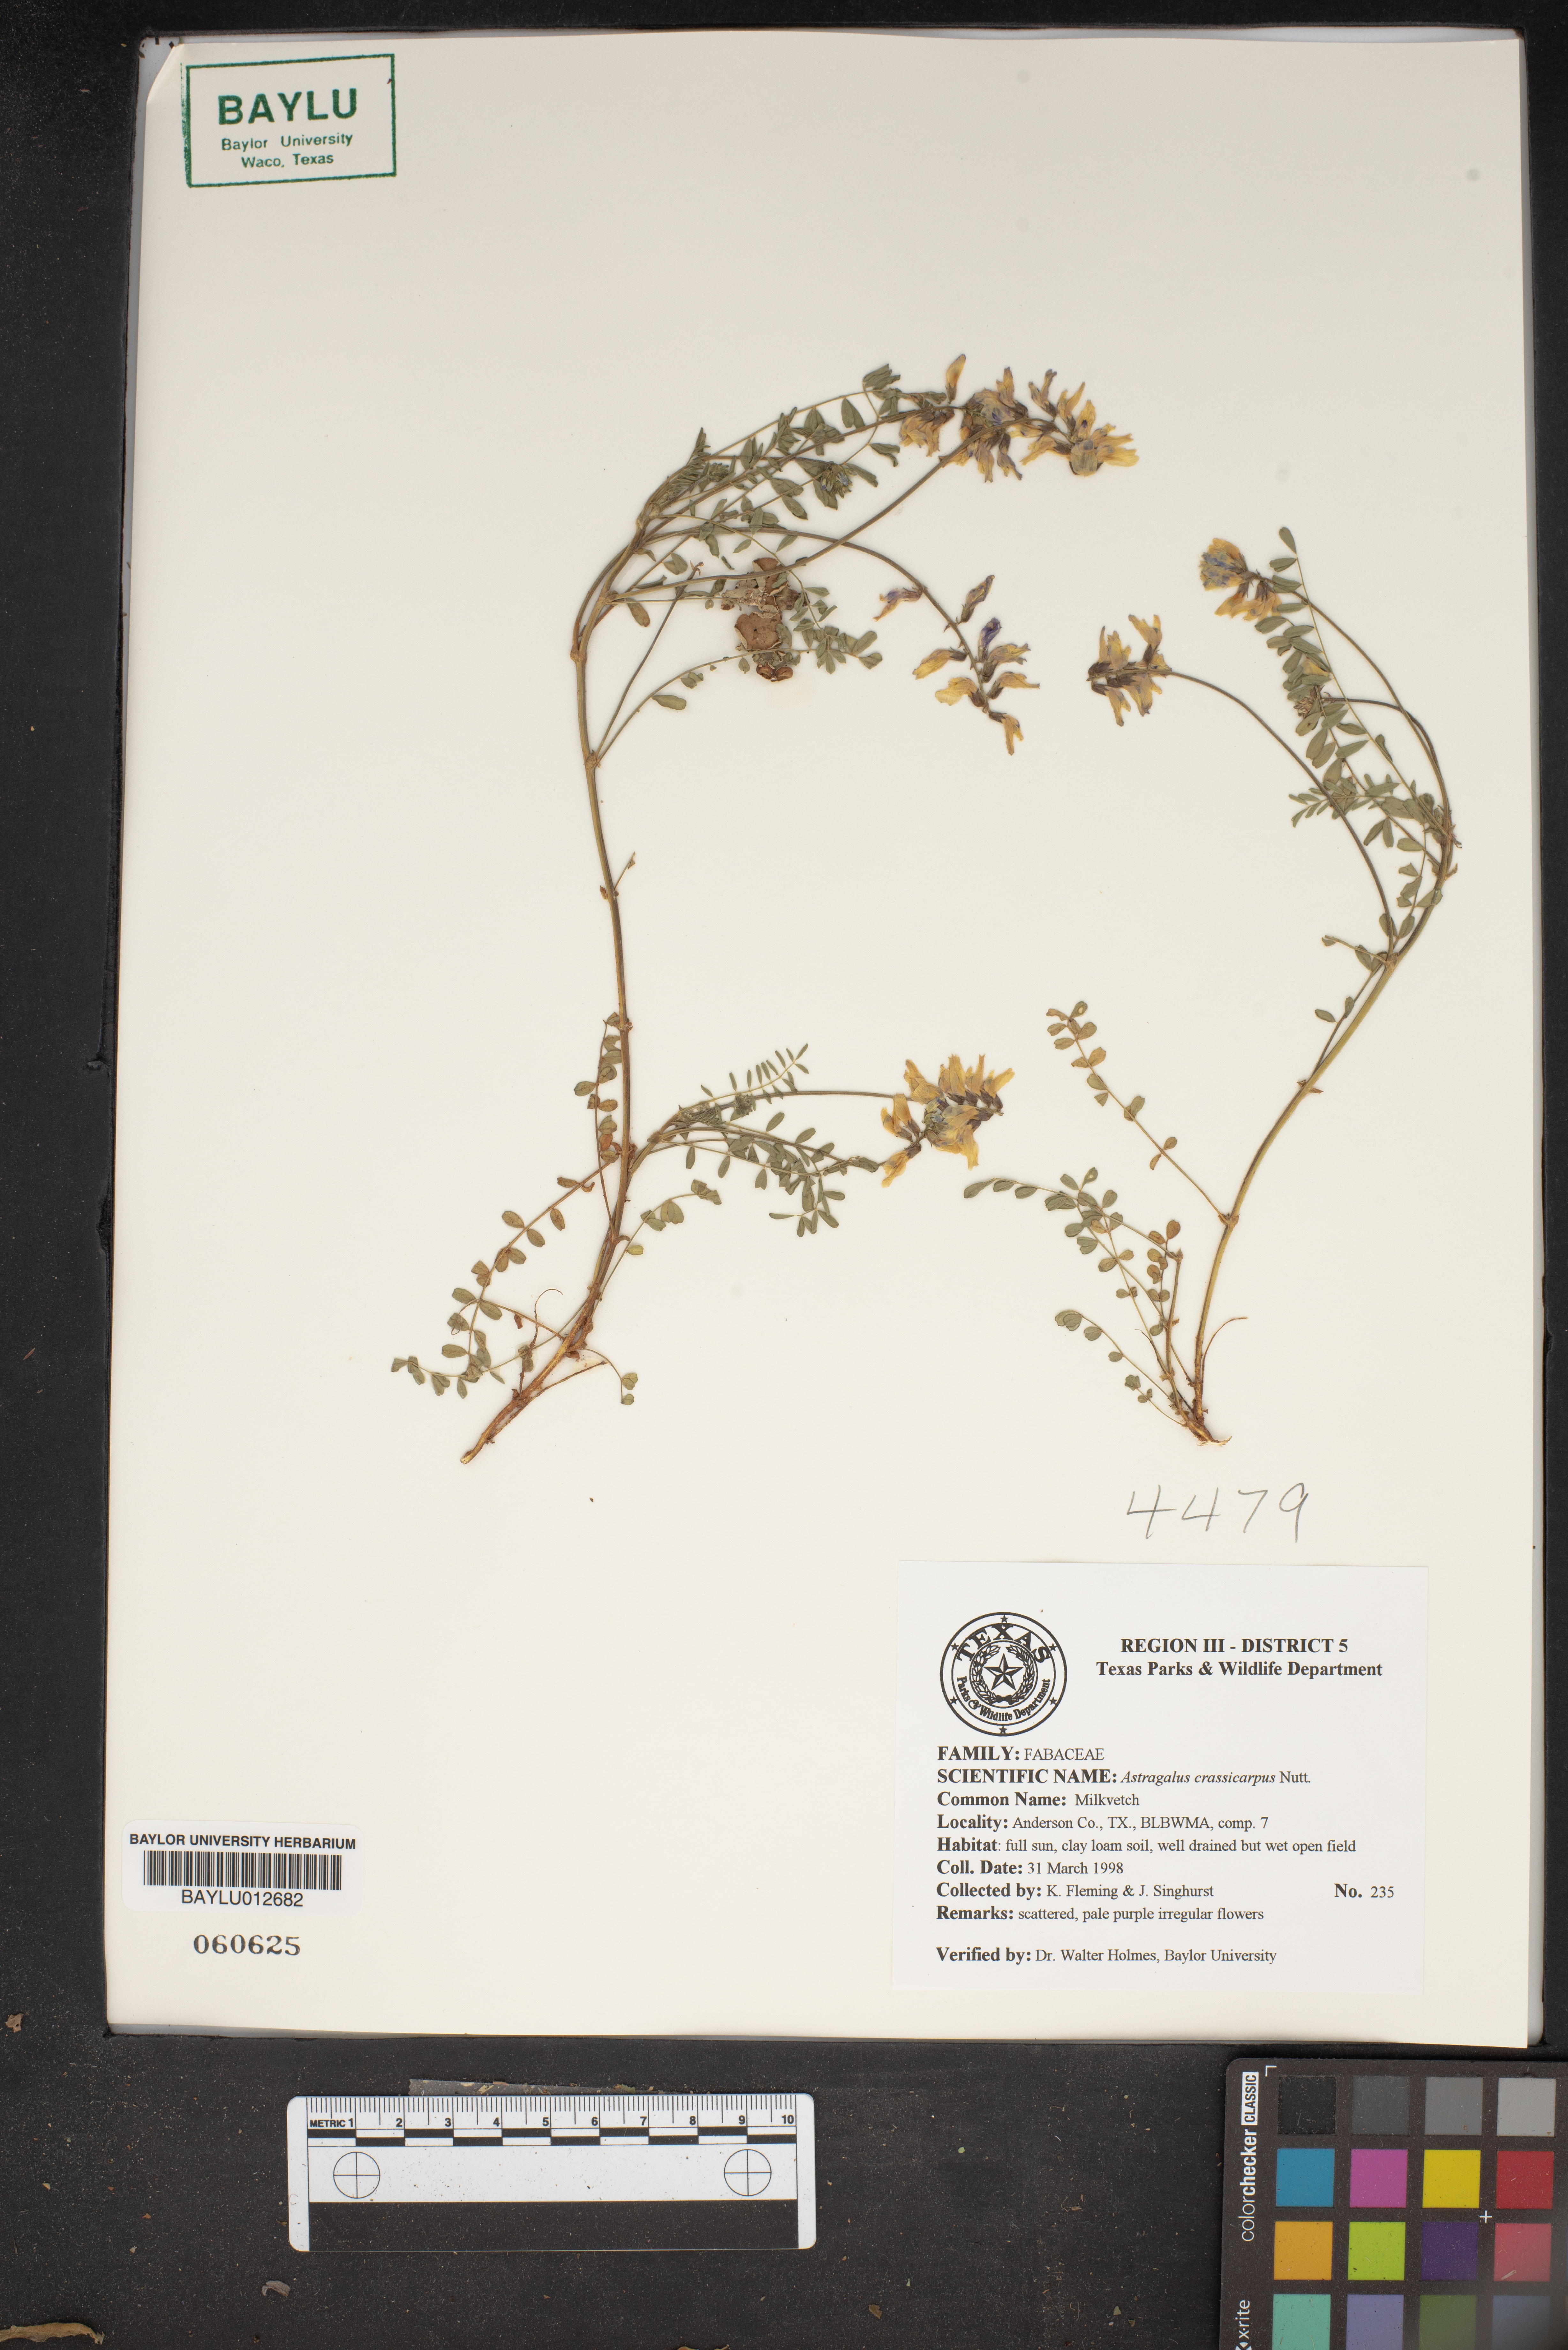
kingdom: Plantae
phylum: Tracheophyta
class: Magnoliopsida
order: Fabales
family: Fabaceae
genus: Astragalus
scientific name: Astragalus crassicarpus
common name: Ground-plum milk-vetch
